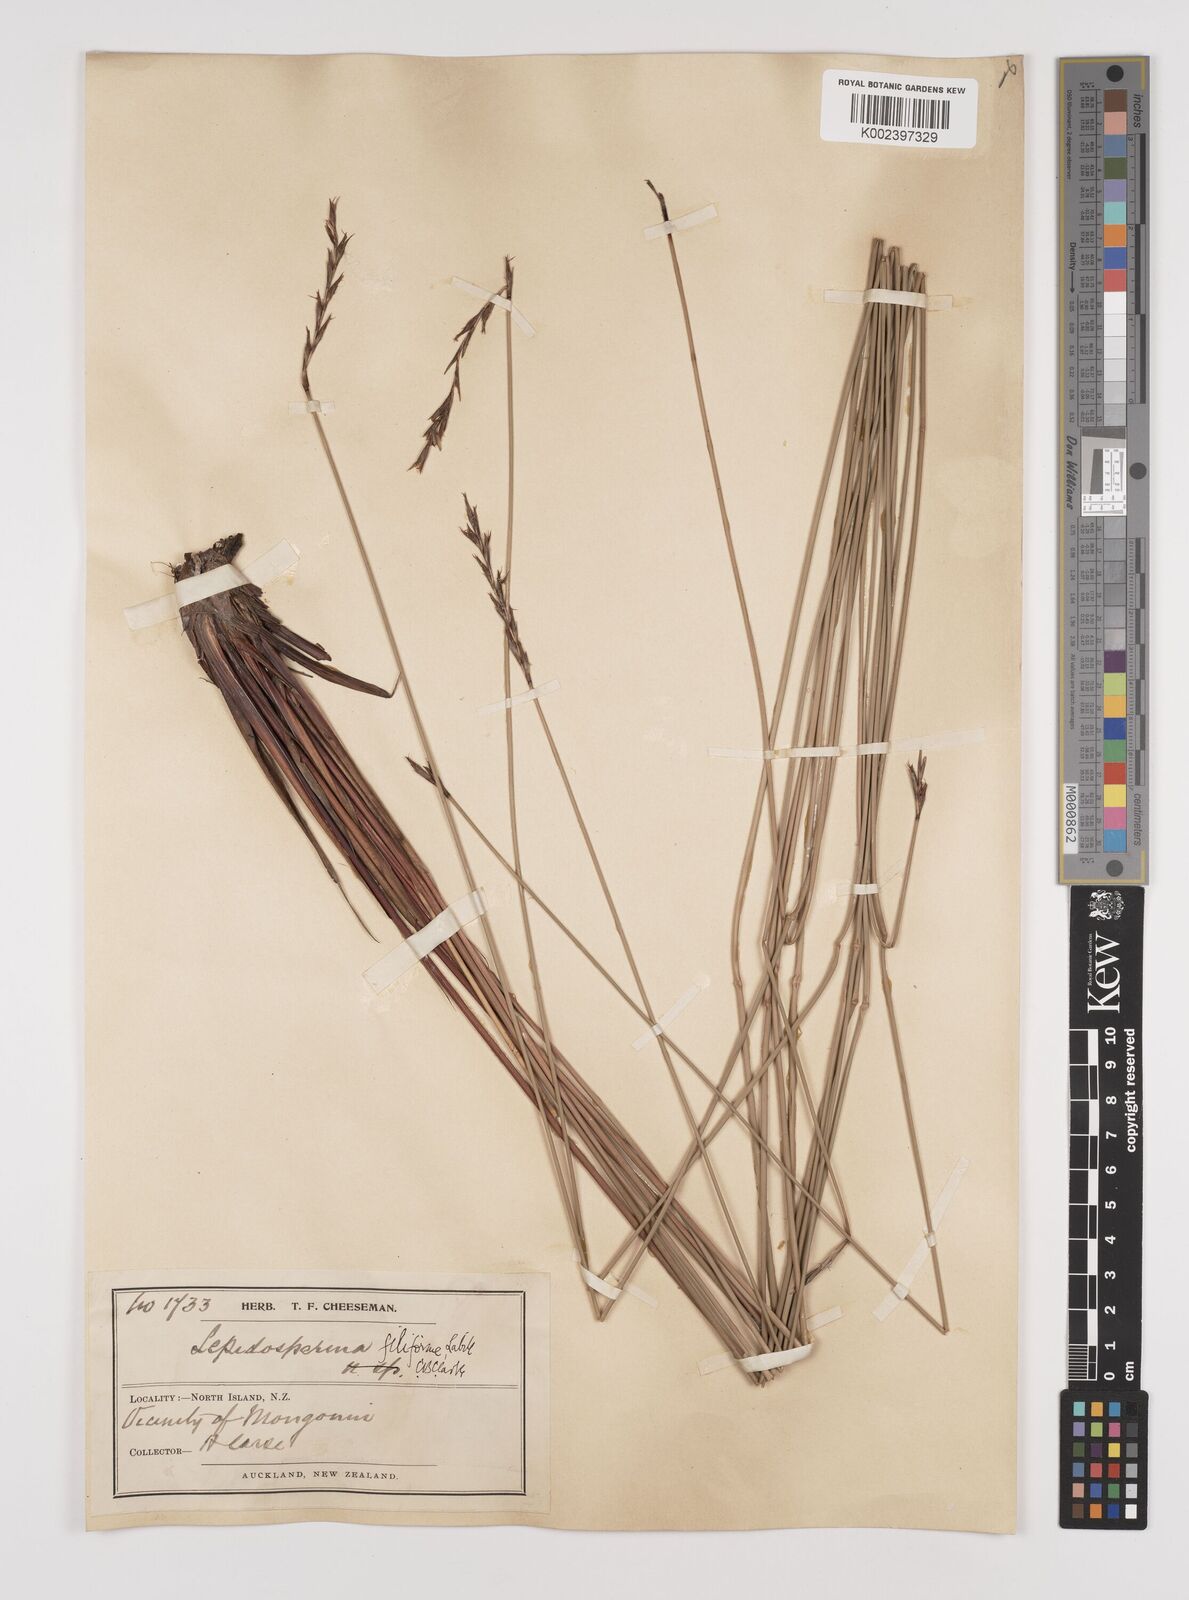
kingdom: Plantae
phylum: Tracheophyta
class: Liliopsida
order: Poales
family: Cyperaceae
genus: Lepidosperma
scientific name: Lepidosperma filiforme
